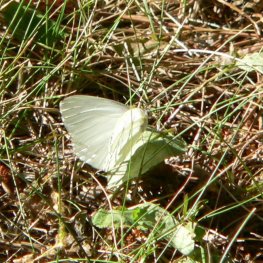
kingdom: Animalia
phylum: Arthropoda
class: Insecta
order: Lepidoptera
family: Pieridae
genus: Pieris
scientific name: Pieris oleracea
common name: Mustard White
